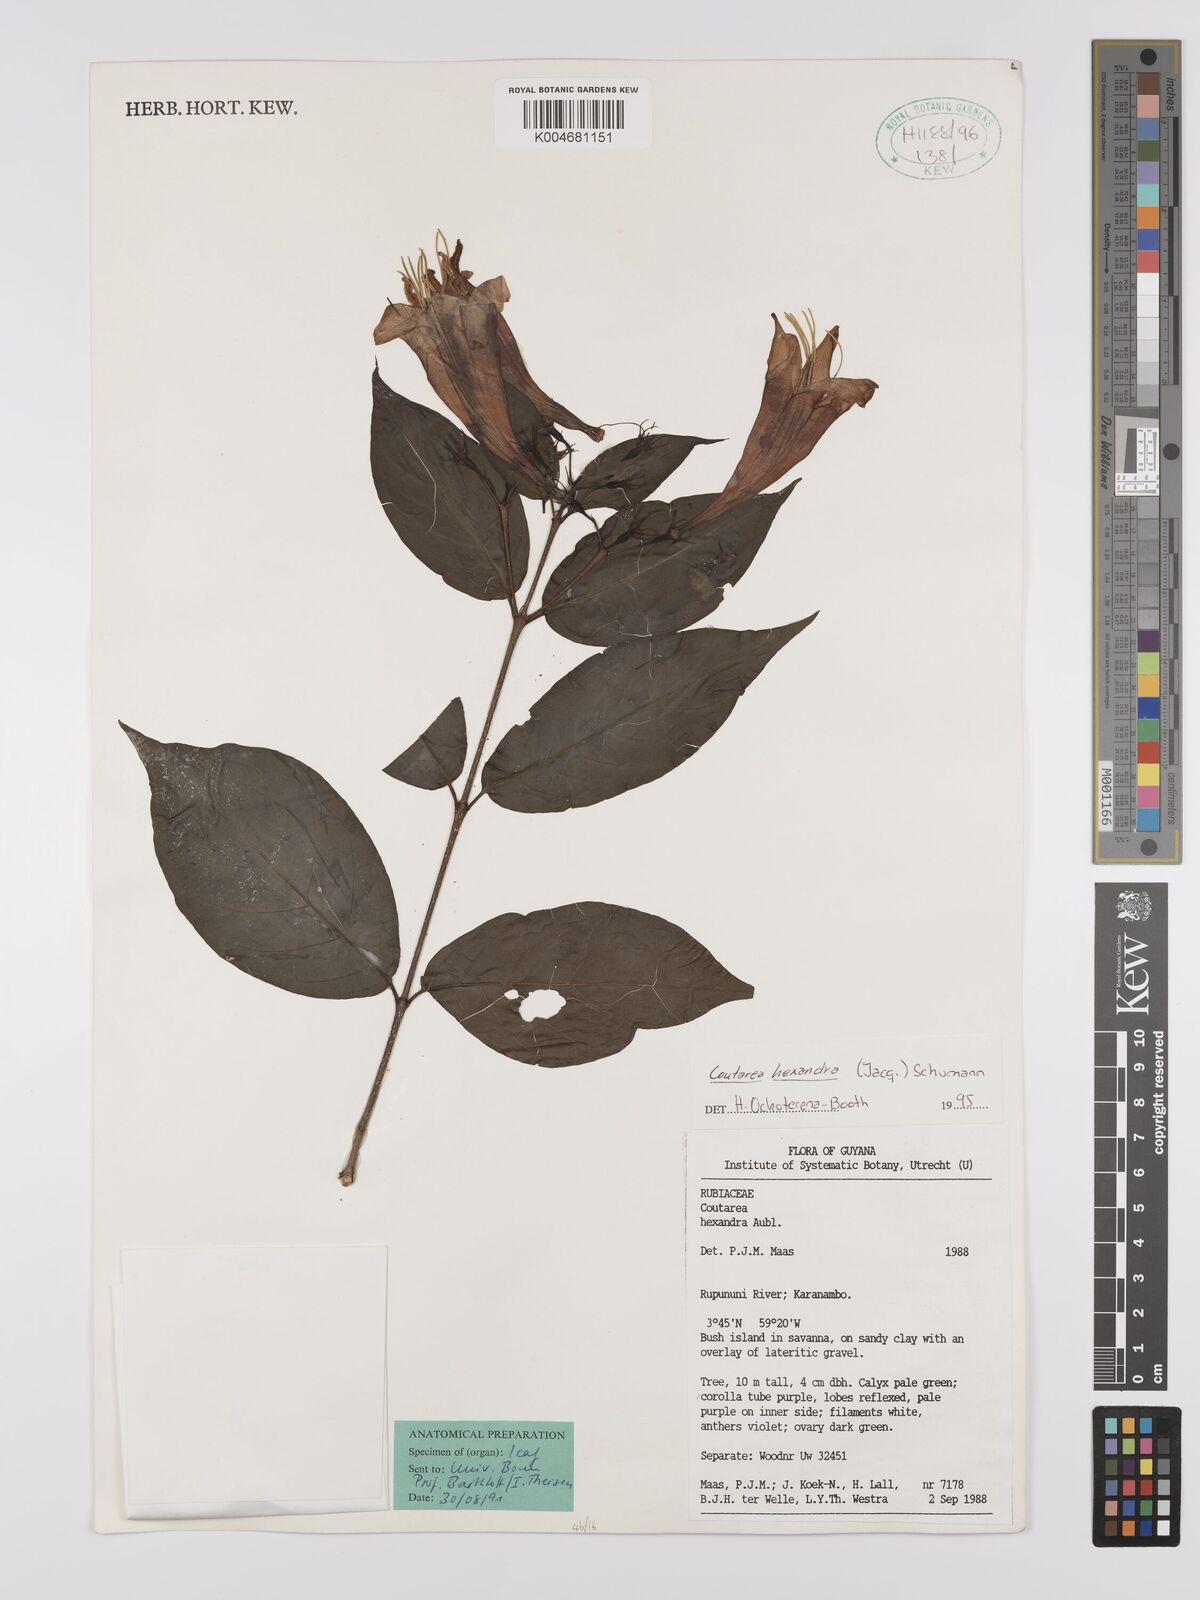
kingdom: Plantae
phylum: Tracheophyta
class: Magnoliopsida
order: Gentianales
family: Rubiaceae
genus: Coutarea
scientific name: Coutarea hexandra
